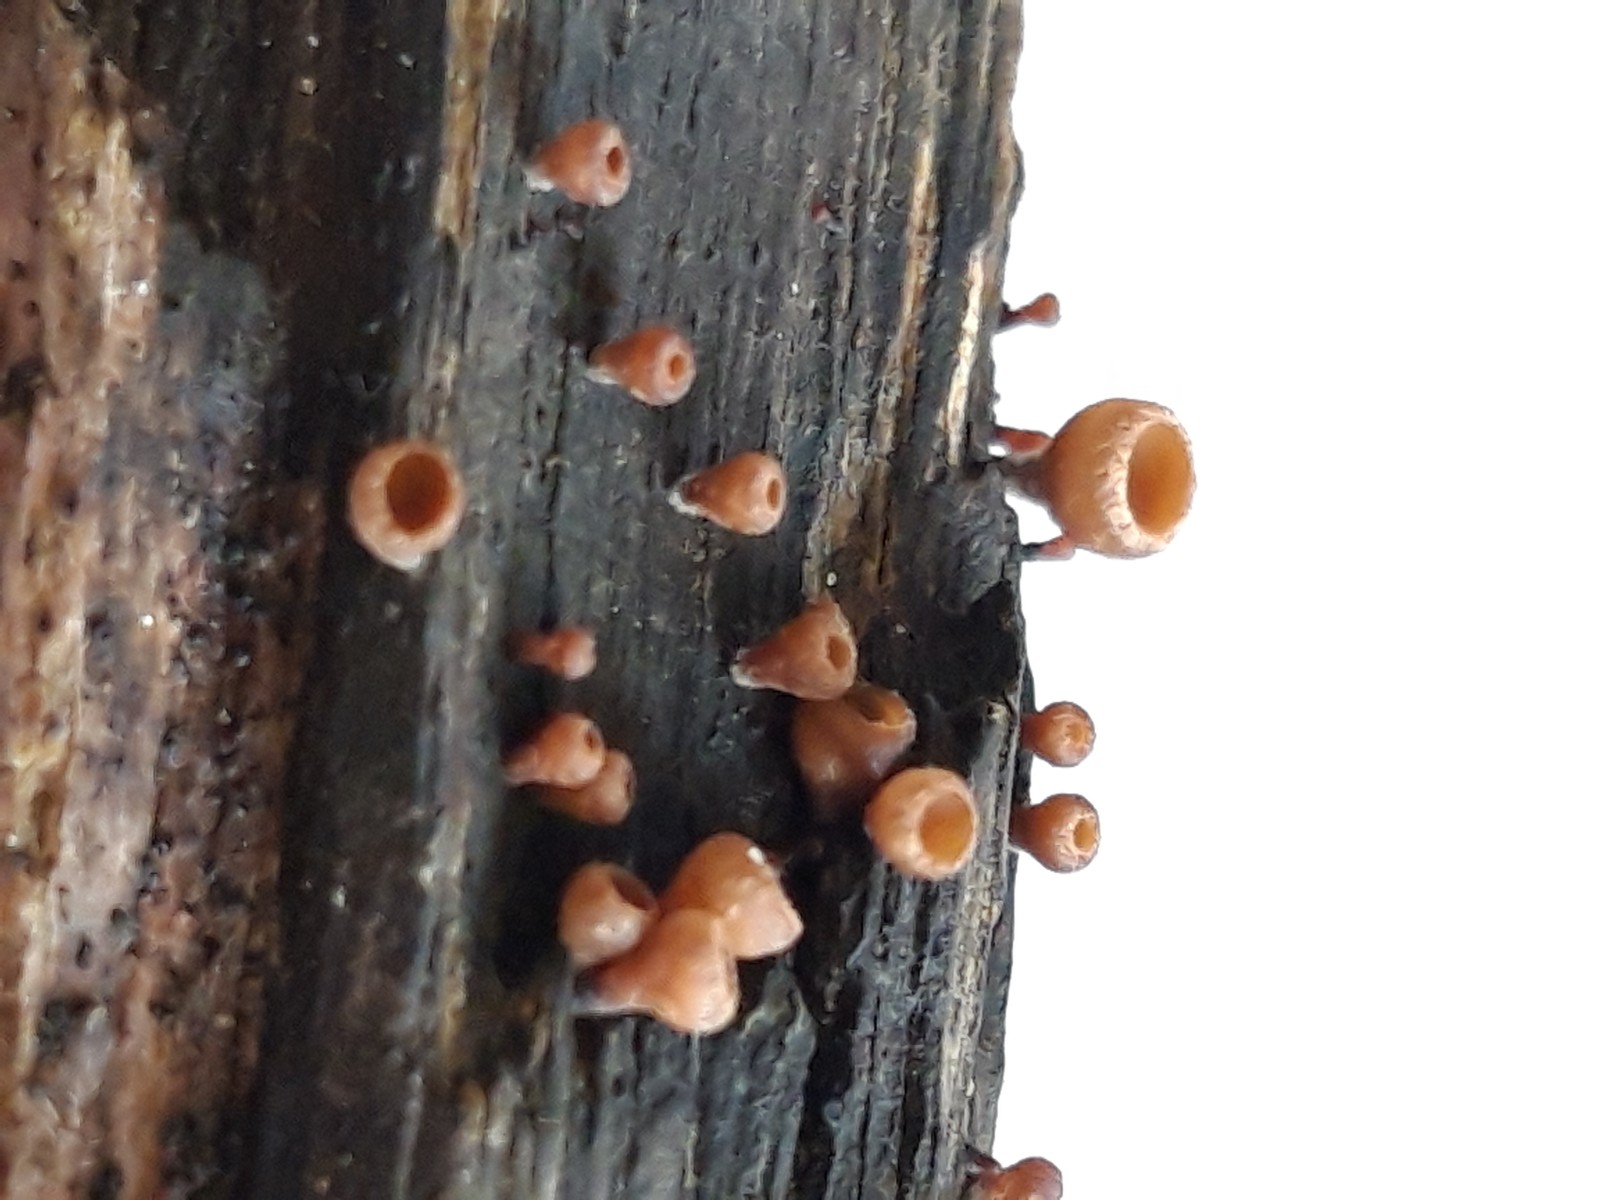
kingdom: Fungi
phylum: Ascomycota
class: Leotiomycetes
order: Helotiales
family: Rutstroemiaceae
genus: Rutstroemia
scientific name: Rutstroemia firma
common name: gren-brunskive
